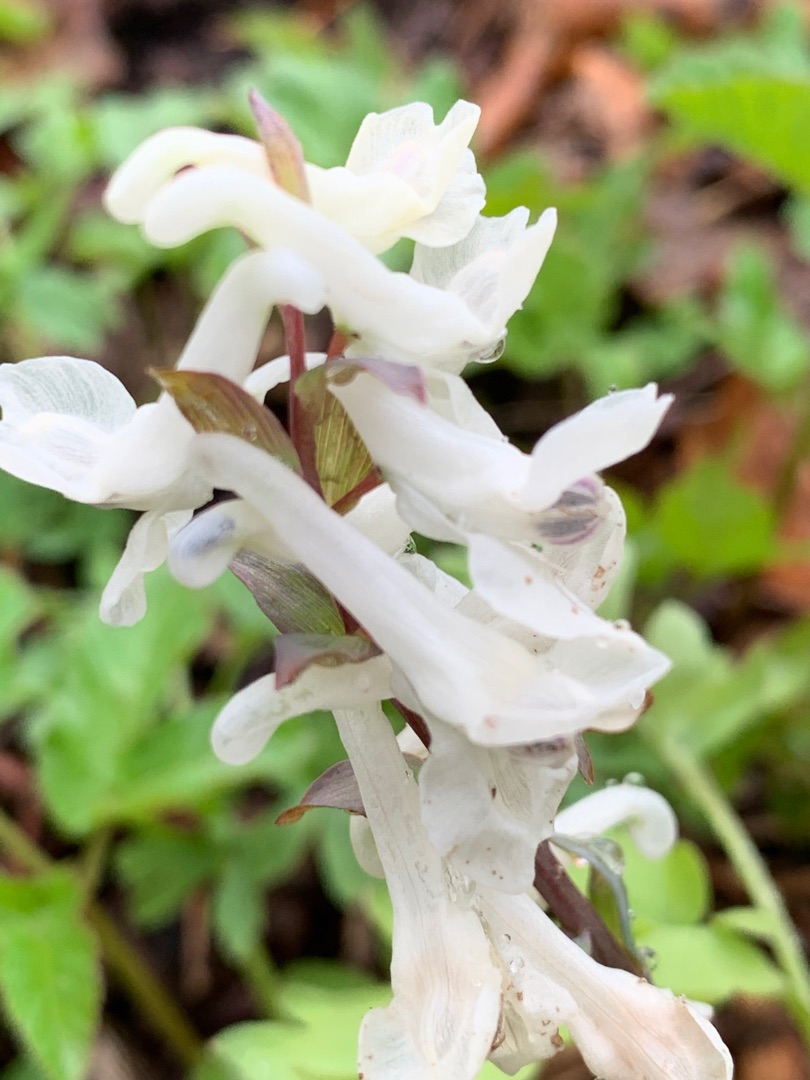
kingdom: Plantae
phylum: Tracheophyta
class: Magnoliopsida
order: Ranunculales
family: Papaveraceae
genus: Corydalis
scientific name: Corydalis cava
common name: Hulrodet lærkespore
